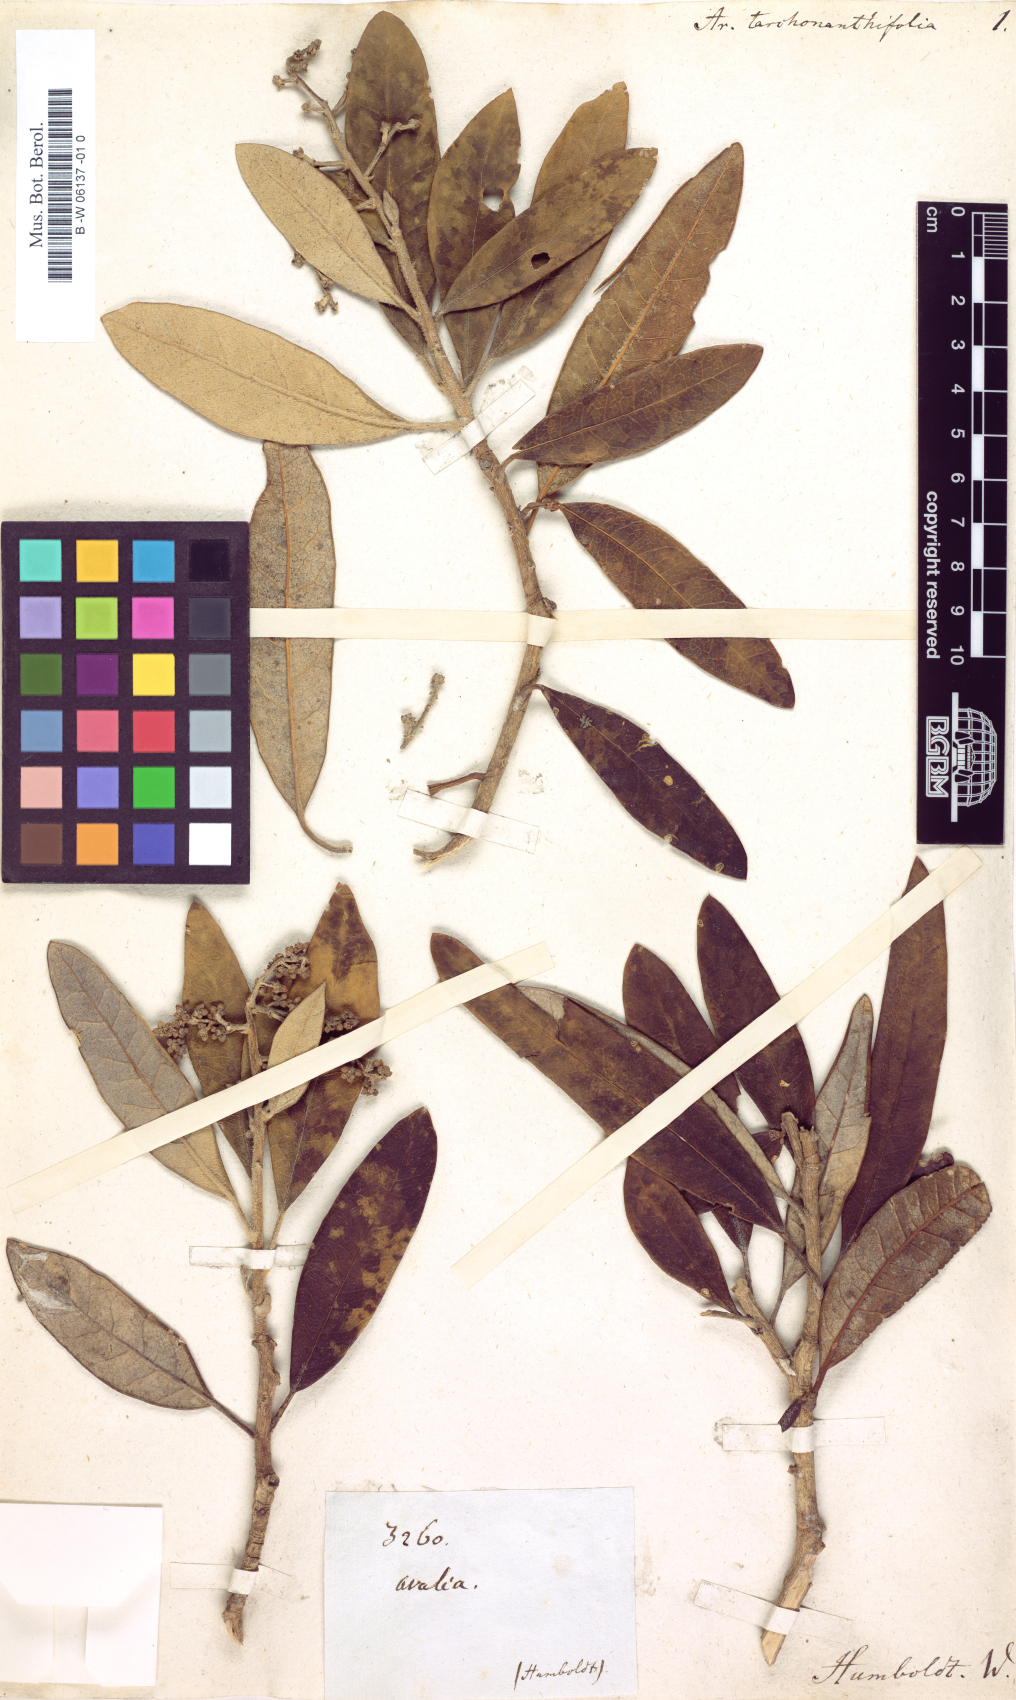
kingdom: Plantae
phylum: Tracheophyta
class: Magnoliopsida
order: Apiales
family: Araliaceae
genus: Oreopanax
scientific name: Oreopanax avicenniifolius
